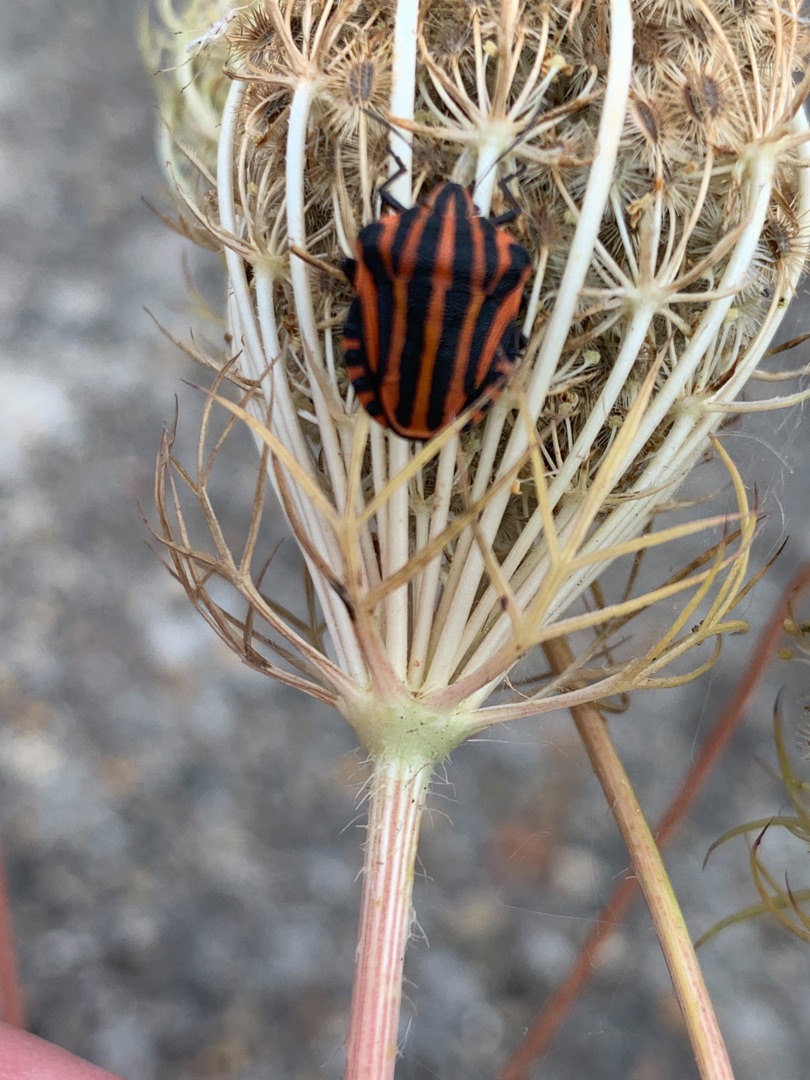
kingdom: Animalia
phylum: Arthropoda
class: Insecta
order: Hemiptera
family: Pentatomidae
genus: Graphosoma
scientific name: Graphosoma italicum
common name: Stribetæge
